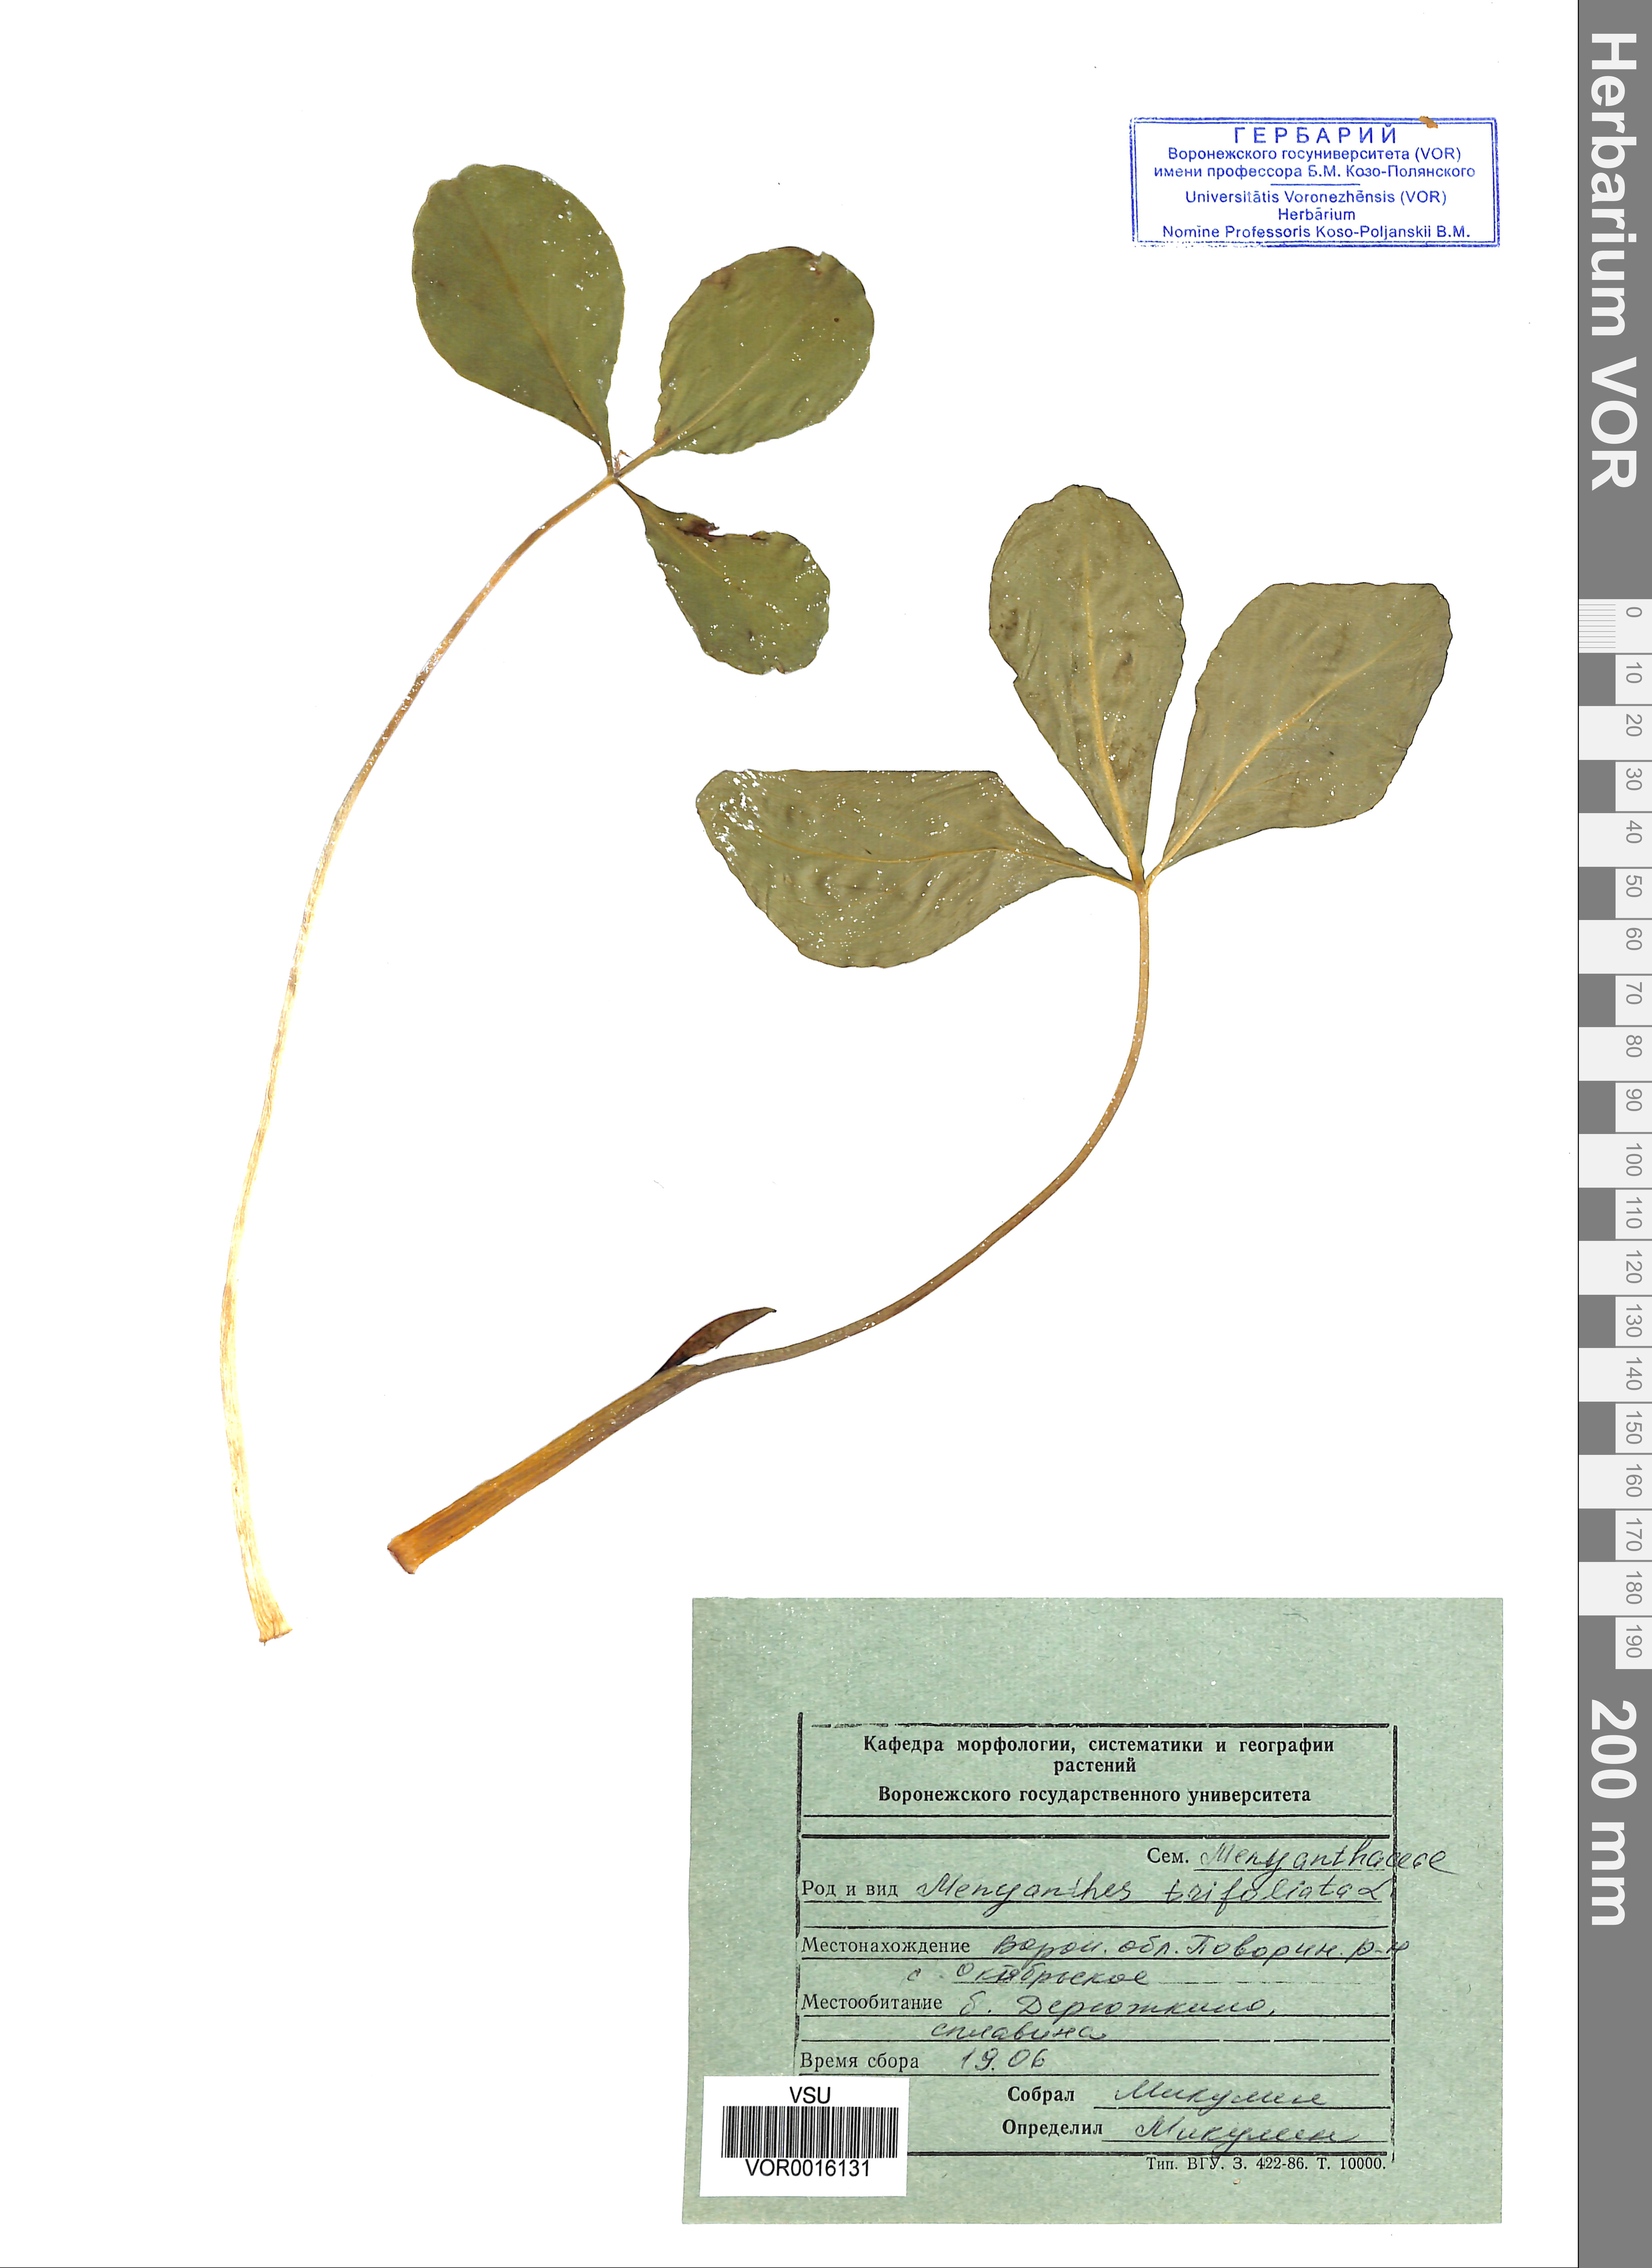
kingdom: Plantae
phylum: Tracheophyta
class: Magnoliopsida
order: Asterales
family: Menyanthaceae
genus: Menyanthes
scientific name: Menyanthes trifoliata
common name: Bogbean
